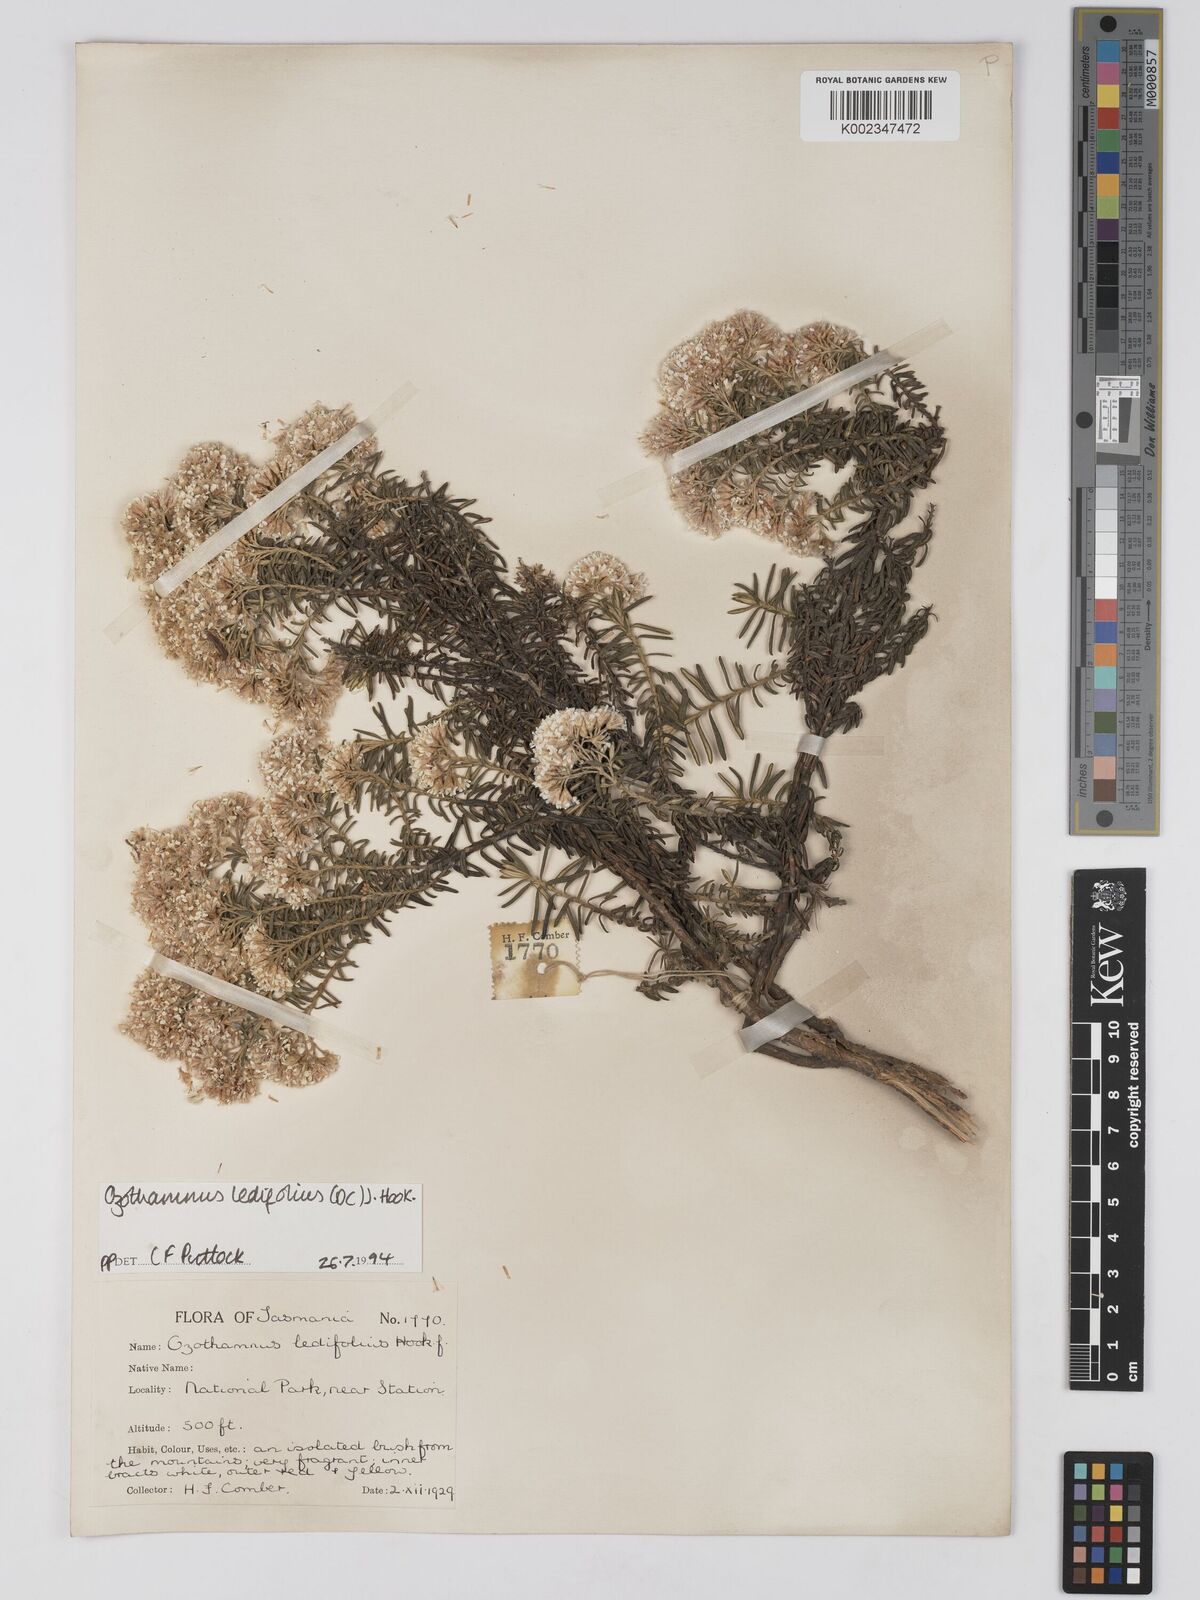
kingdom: Plantae
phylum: Tracheophyta
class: Magnoliopsida
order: Asterales
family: Asteraceae
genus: Ozothamnus
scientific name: Ozothamnus ledifolius
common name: Kerosene-weed
